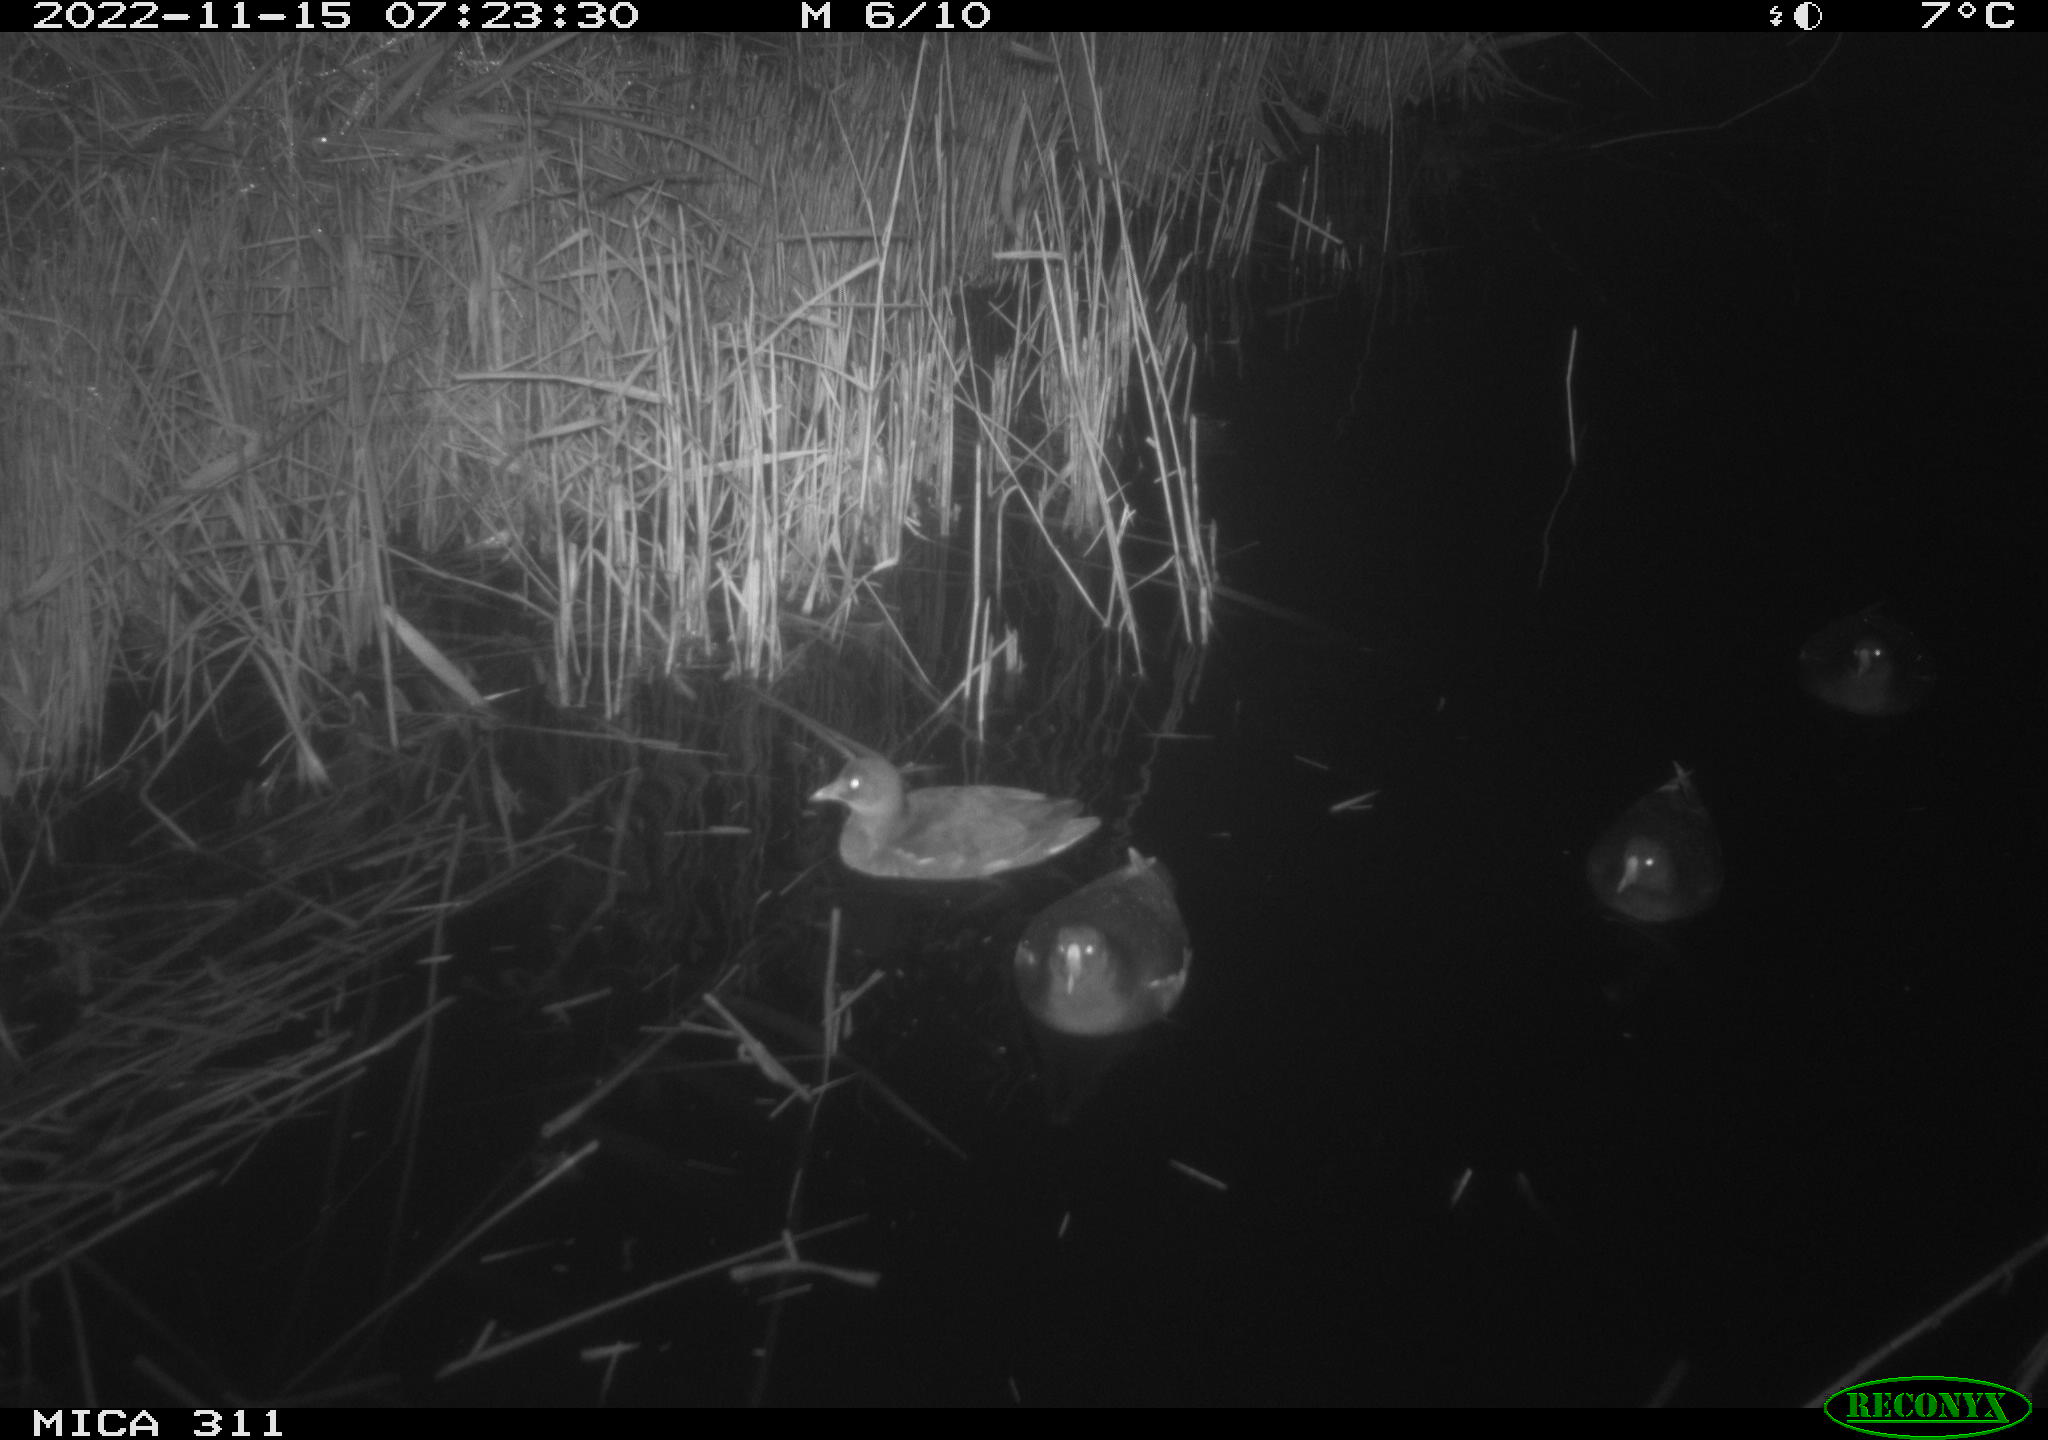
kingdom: Animalia
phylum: Chordata
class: Aves
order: Gruiformes
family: Rallidae
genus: Gallinula
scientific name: Gallinula chloropus
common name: Common moorhen
